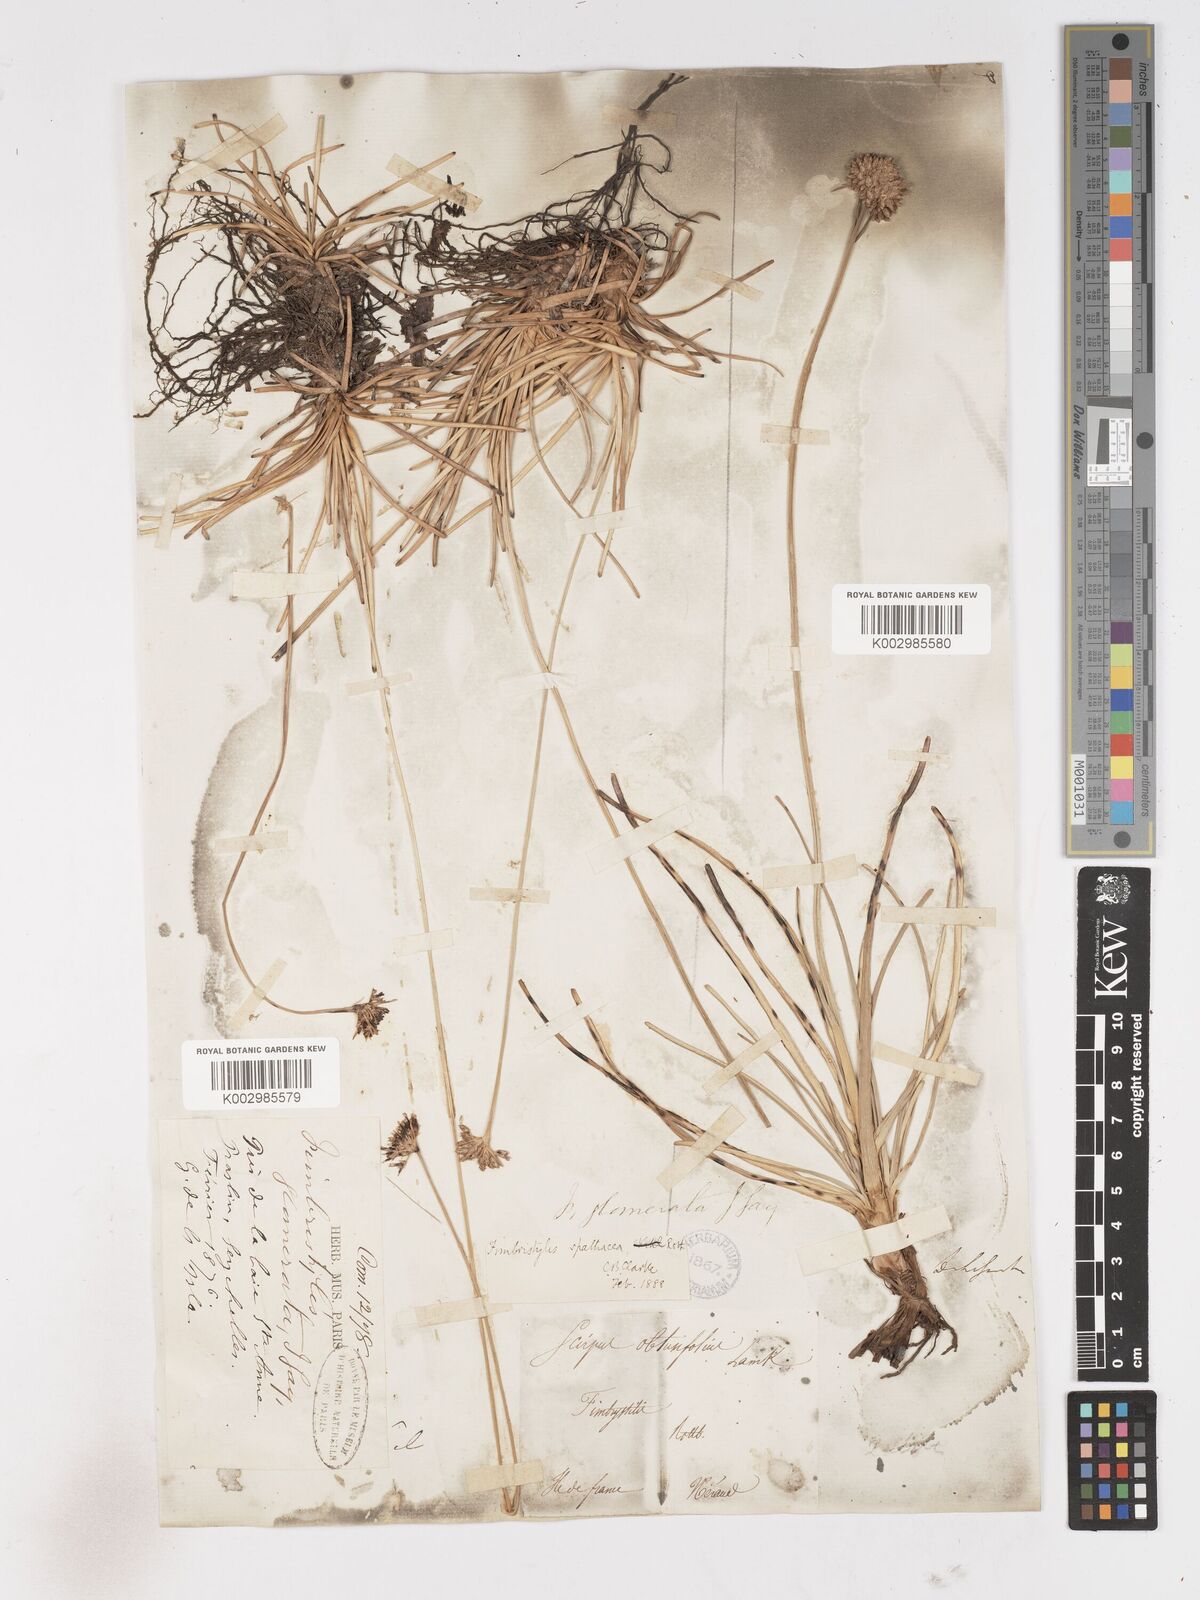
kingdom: Plantae
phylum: Tracheophyta
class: Liliopsida
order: Poales
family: Cyperaceae
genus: Fimbristylis
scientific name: Fimbristylis cymosa
